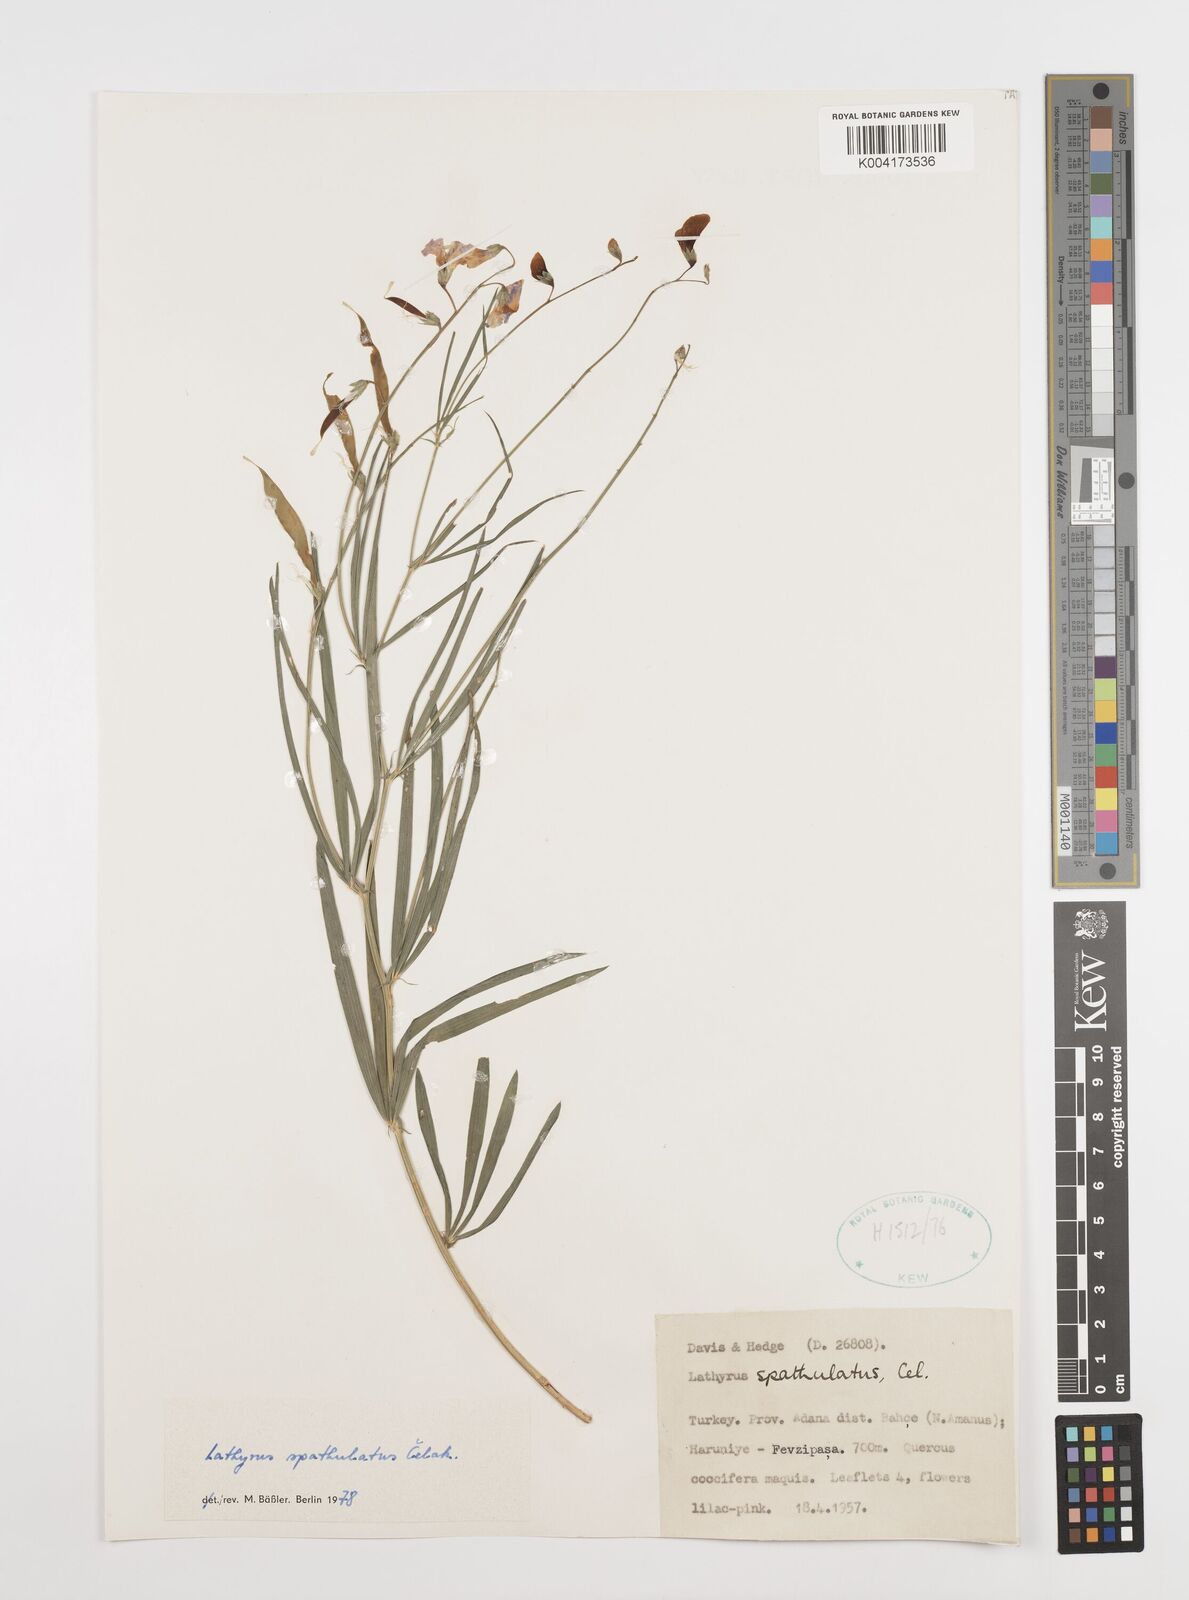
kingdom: Plantae
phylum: Tracheophyta
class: Magnoliopsida
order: Fabales
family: Fabaceae
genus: Lathyrus
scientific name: Lathyrus spathulatus
